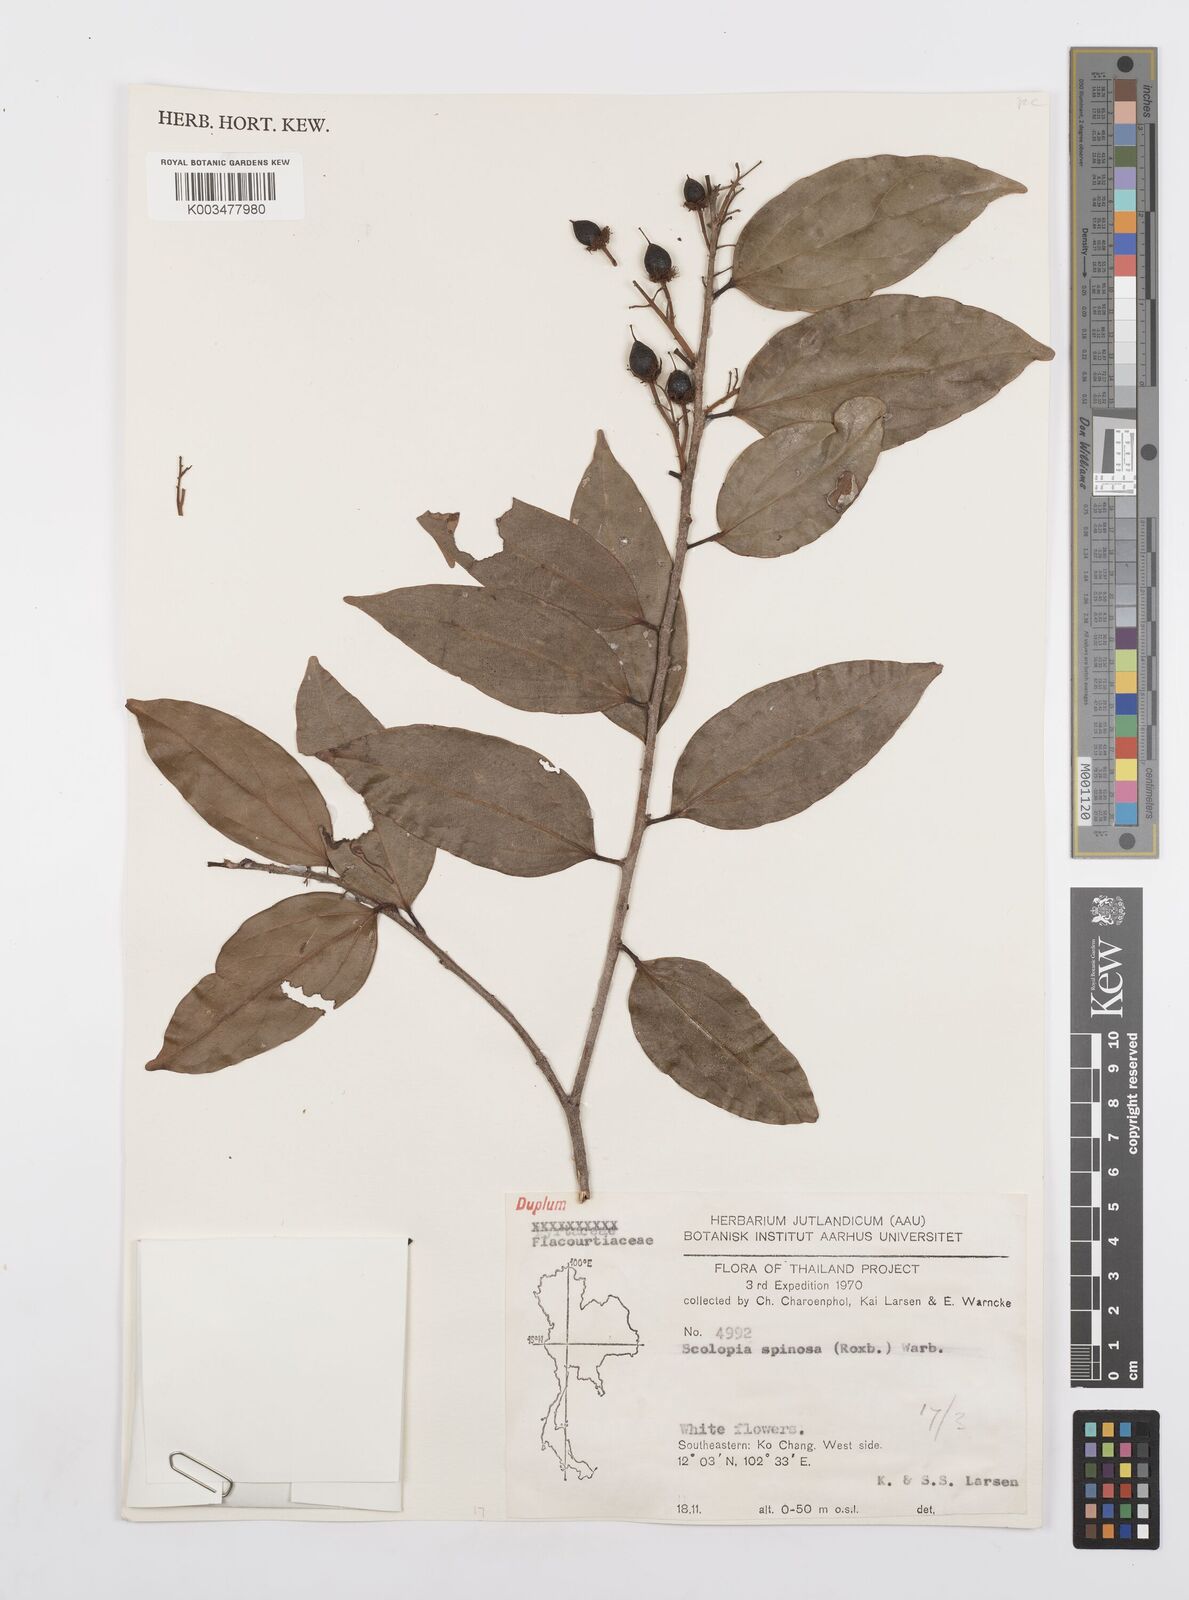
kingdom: Plantae
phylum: Tracheophyta
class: Magnoliopsida
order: Malpighiales
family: Salicaceae
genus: Scolopia
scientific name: Scolopia spinosa
